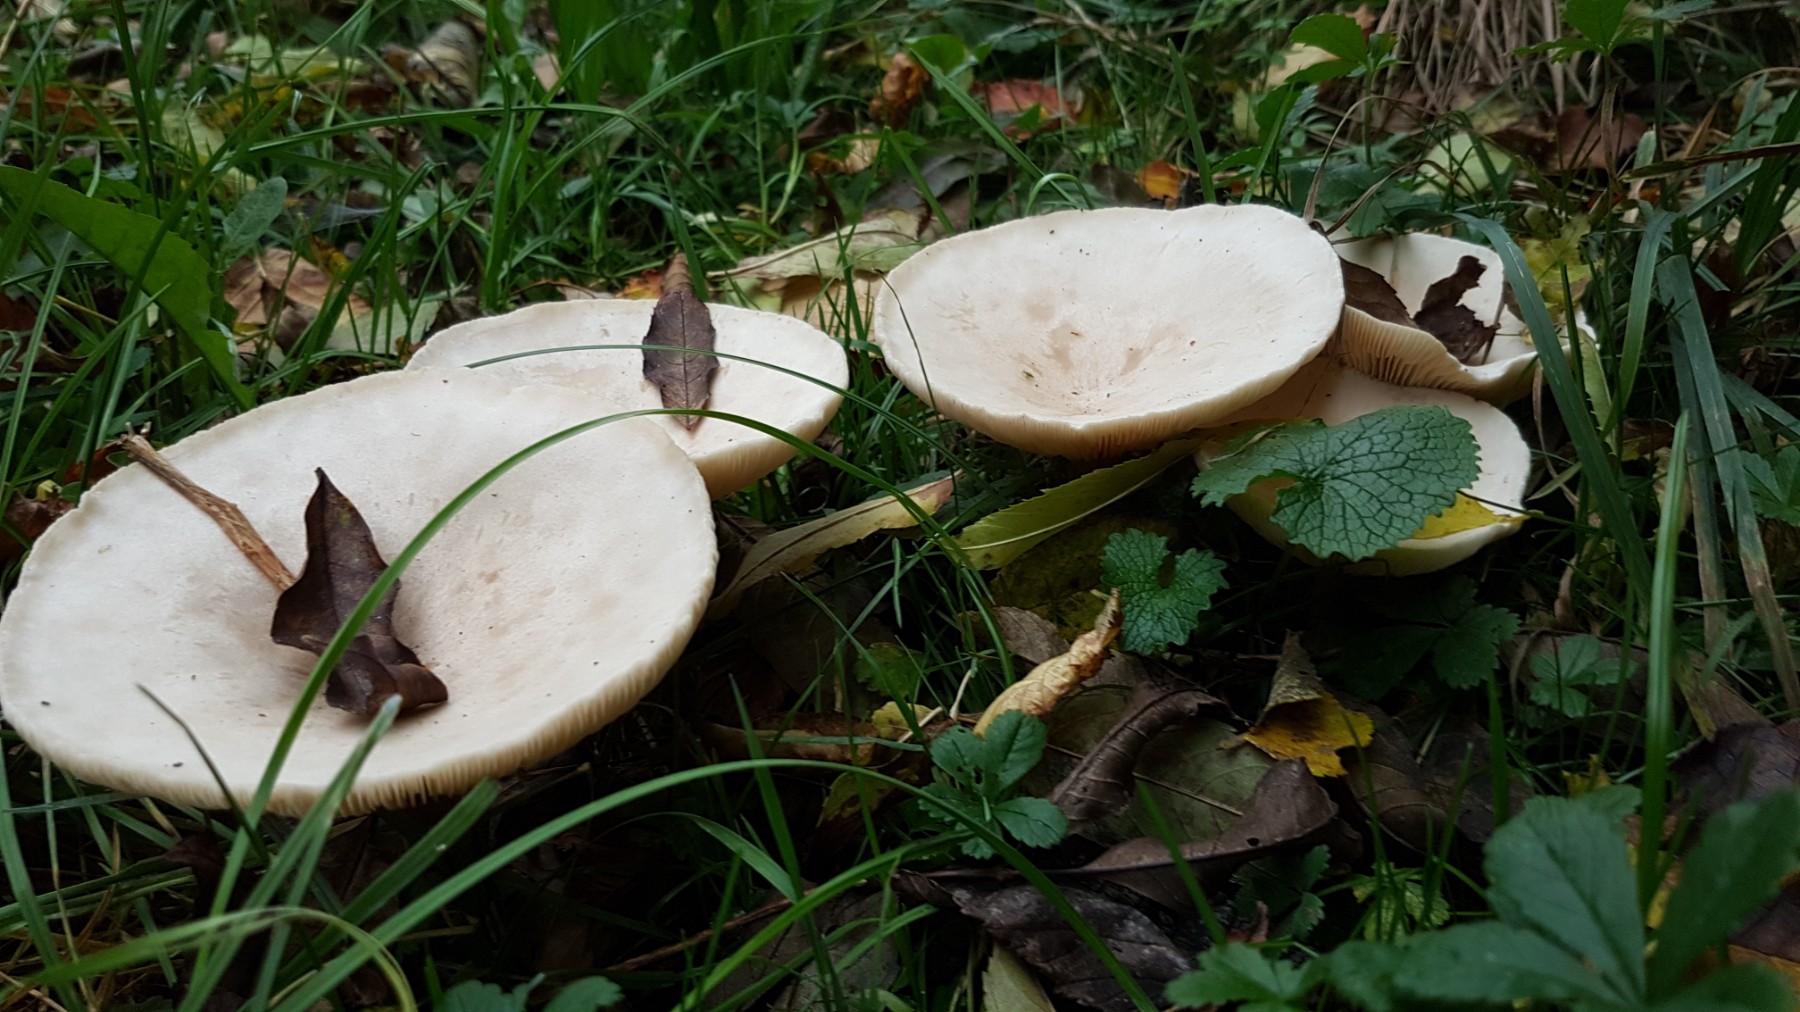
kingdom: Fungi
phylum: Basidiomycota
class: Agaricomycetes
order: Agaricales
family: Tricholomataceae
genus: Infundibulicybe
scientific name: Infundibulicybe geotropa
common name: stor tragthat
